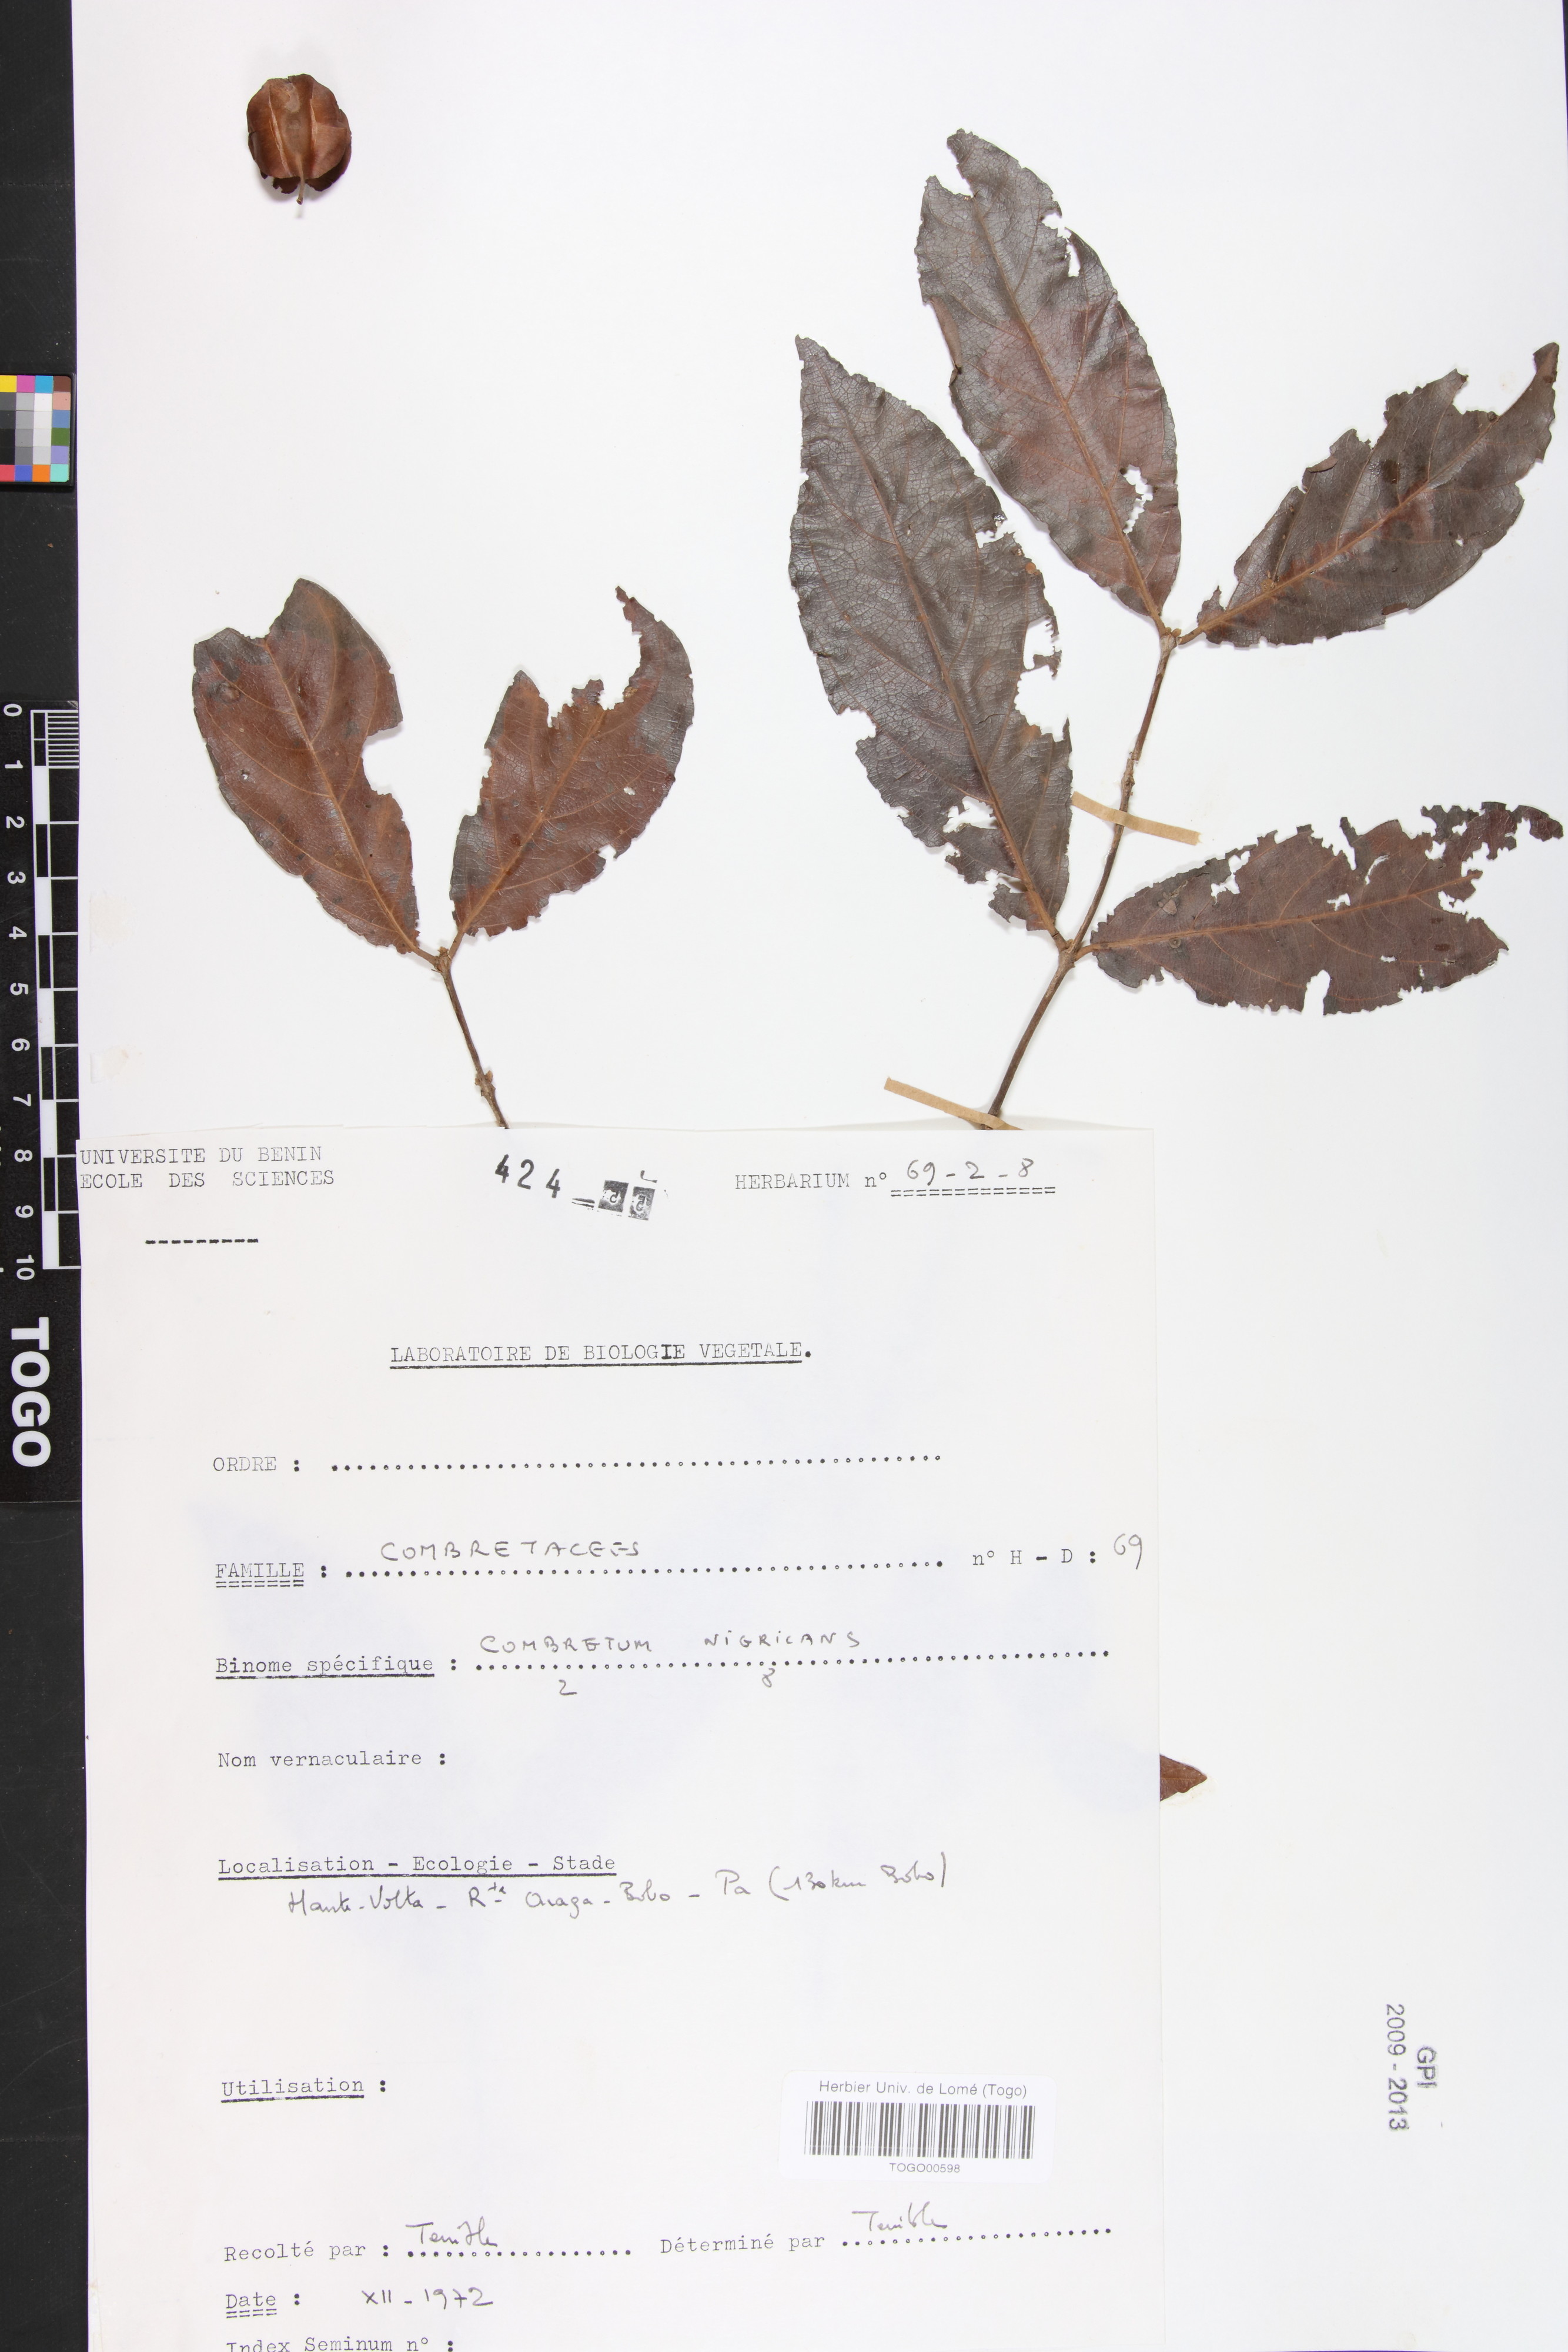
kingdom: Plantae
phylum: Tracheophyta
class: Magnoliopsida
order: Myrtales
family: Combretaceae
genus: Combretum
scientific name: Combretum nigricans
